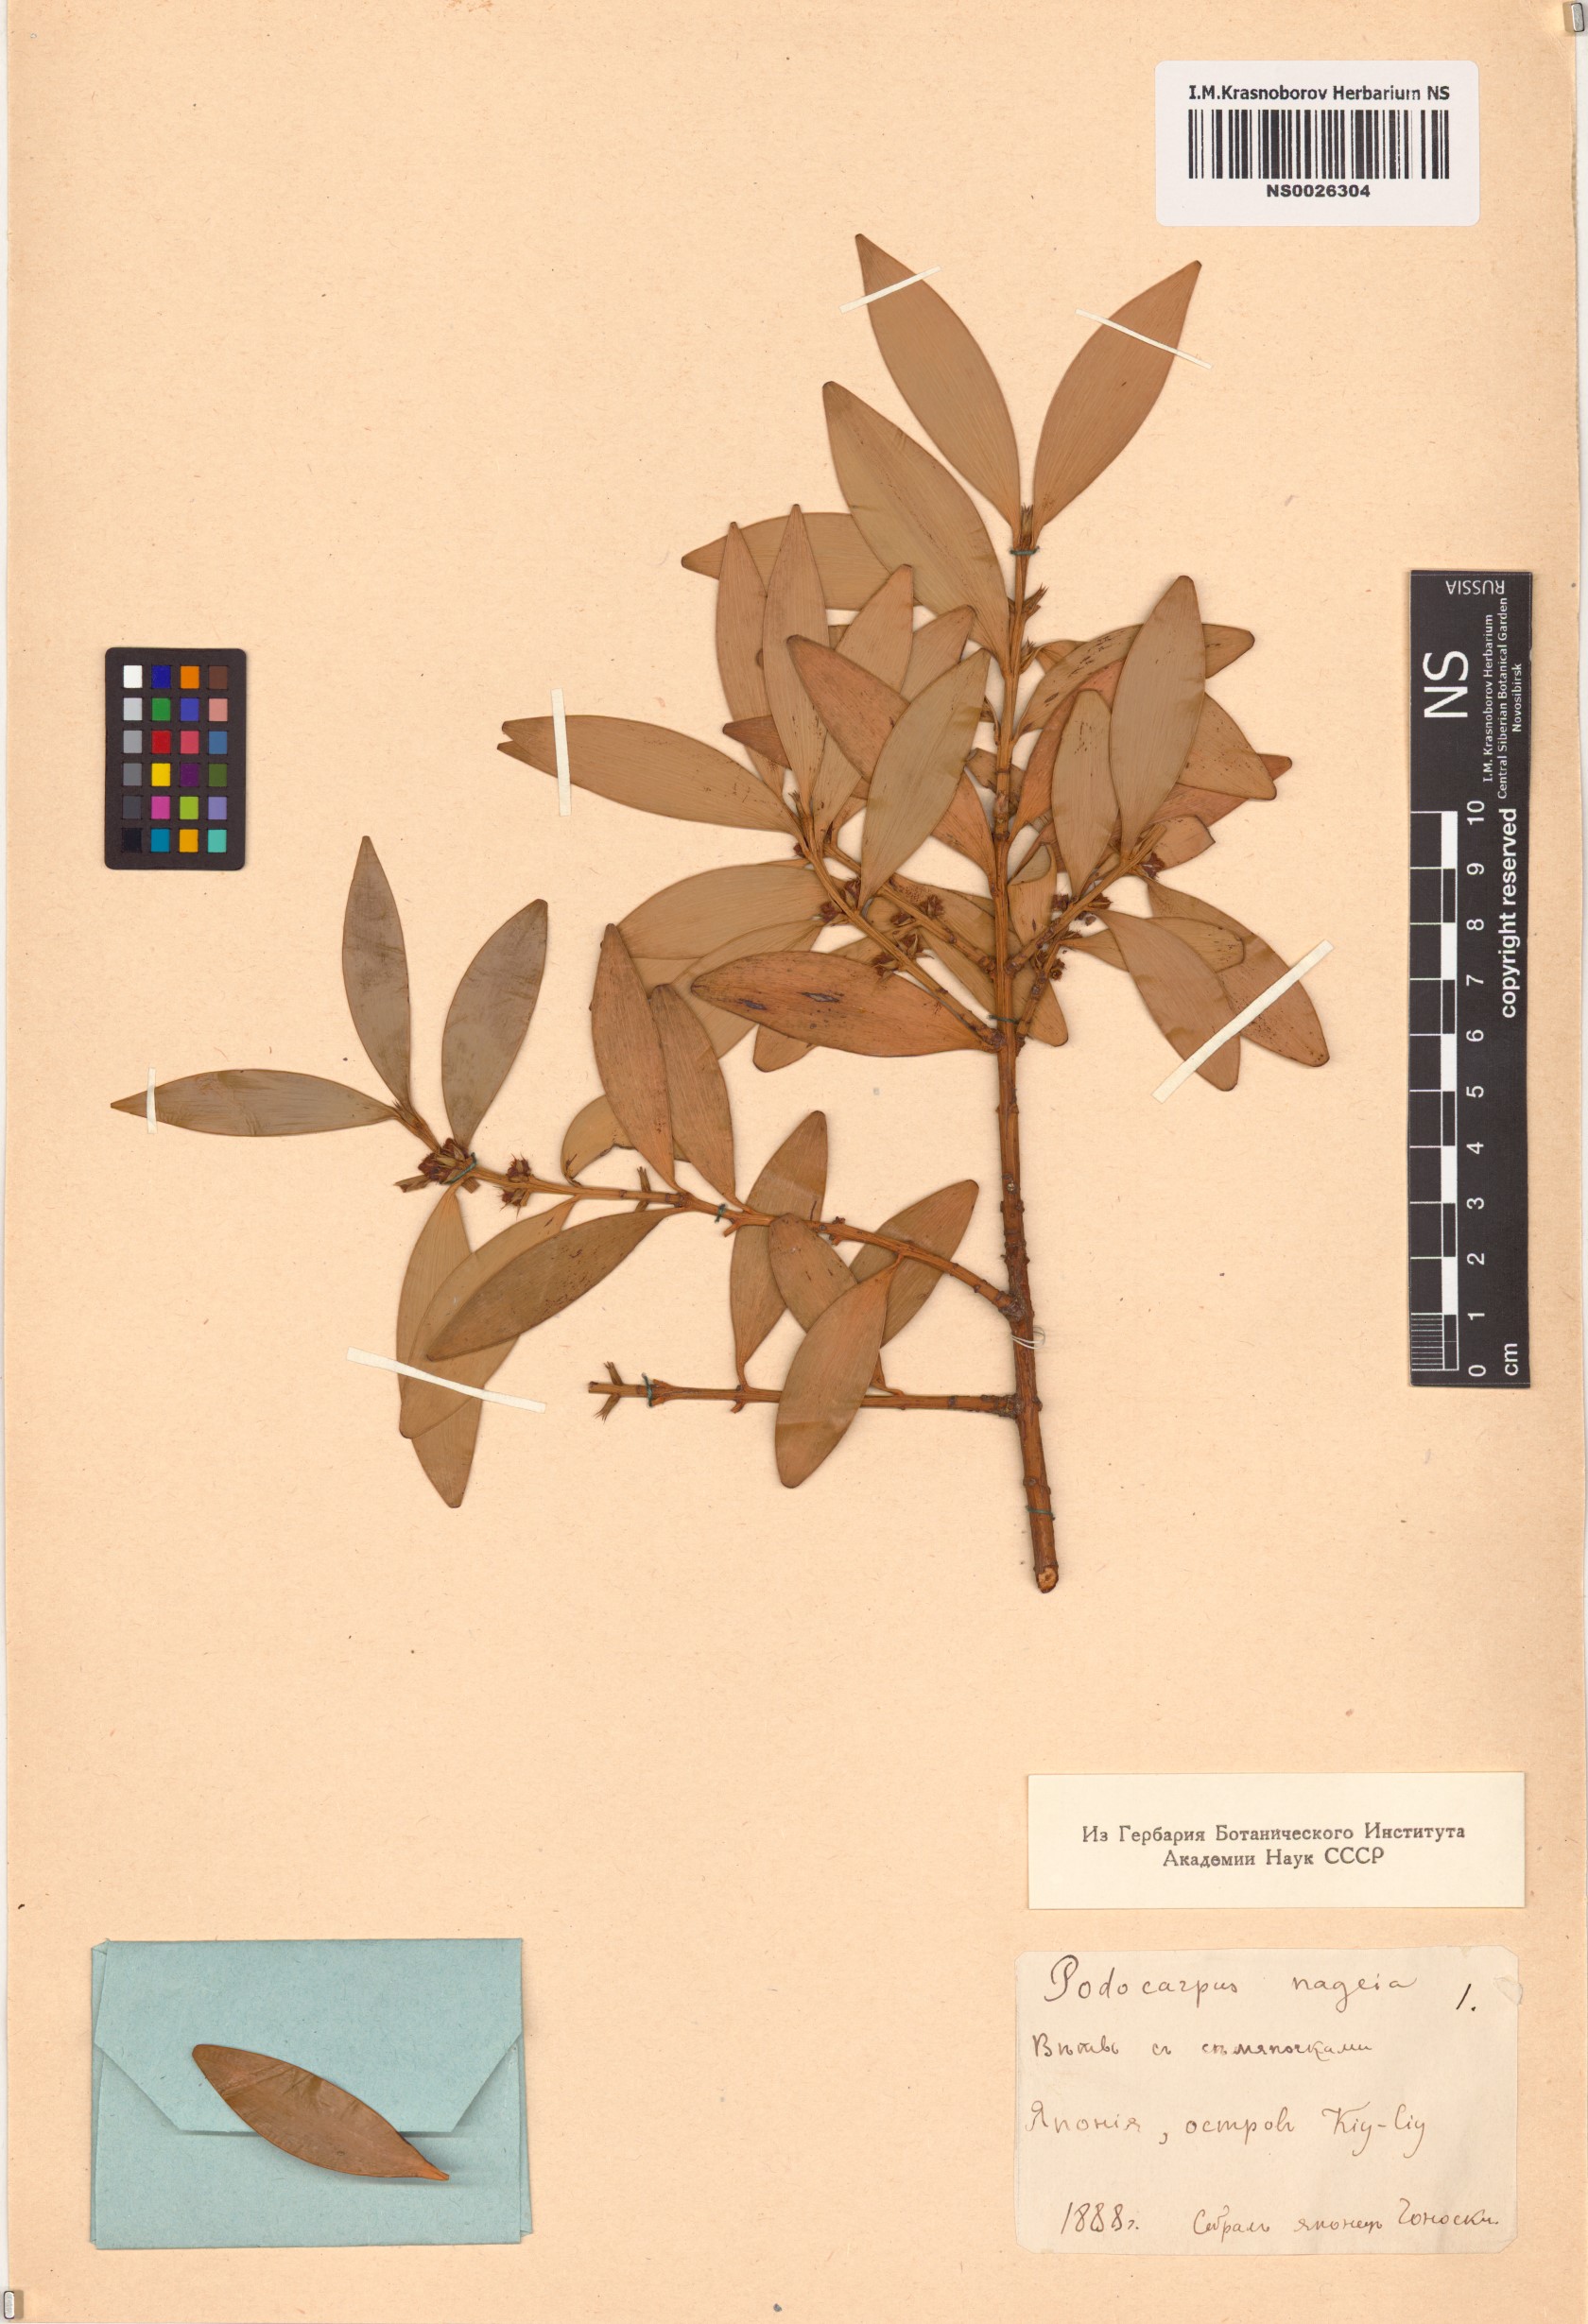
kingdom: Plantae
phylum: Tracheophyta
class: Pinopsida
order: Pinales
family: Podocarpaceae
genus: Nageia
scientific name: Nageia nagi
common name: Kaphal
